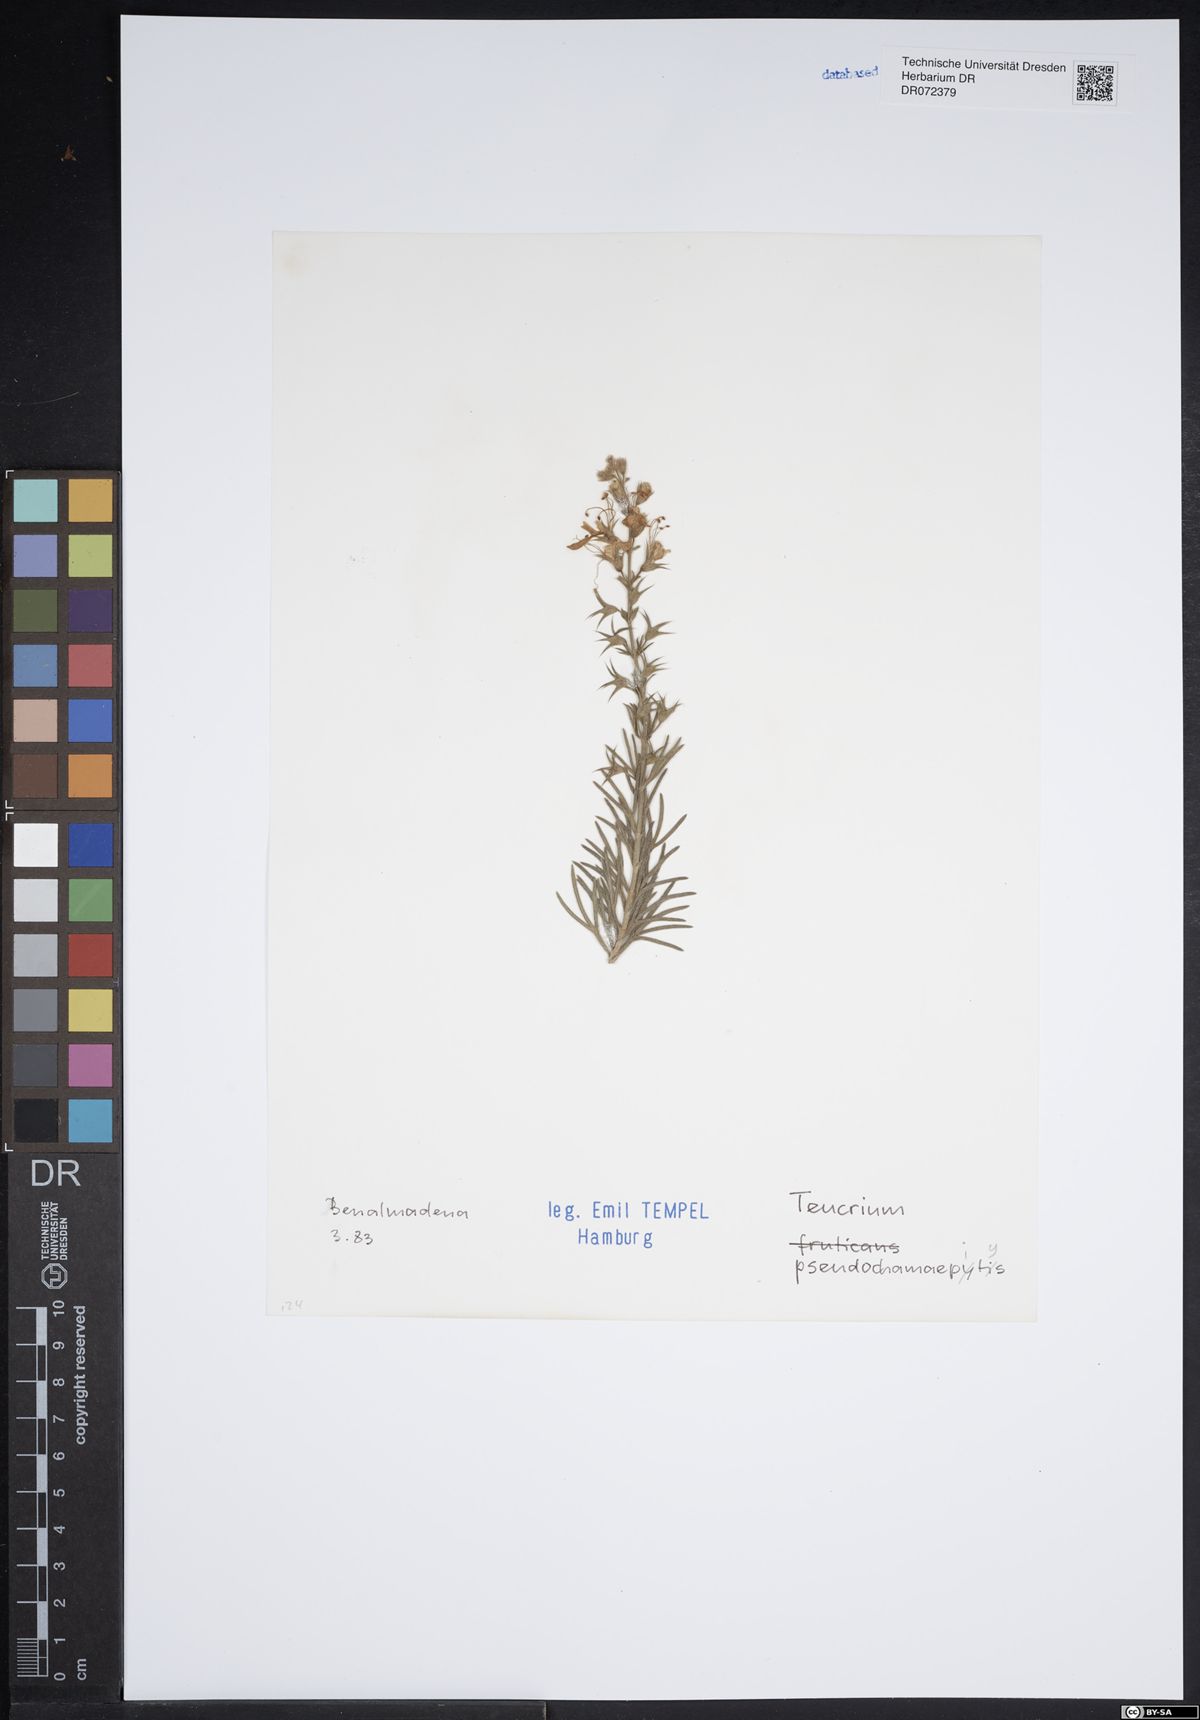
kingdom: Plantae
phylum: Tracheophyta
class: Magnoliopsida
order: Lamiales
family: Lamiaceae
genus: Teucrium
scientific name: Teucrium pseudochamaepitys
